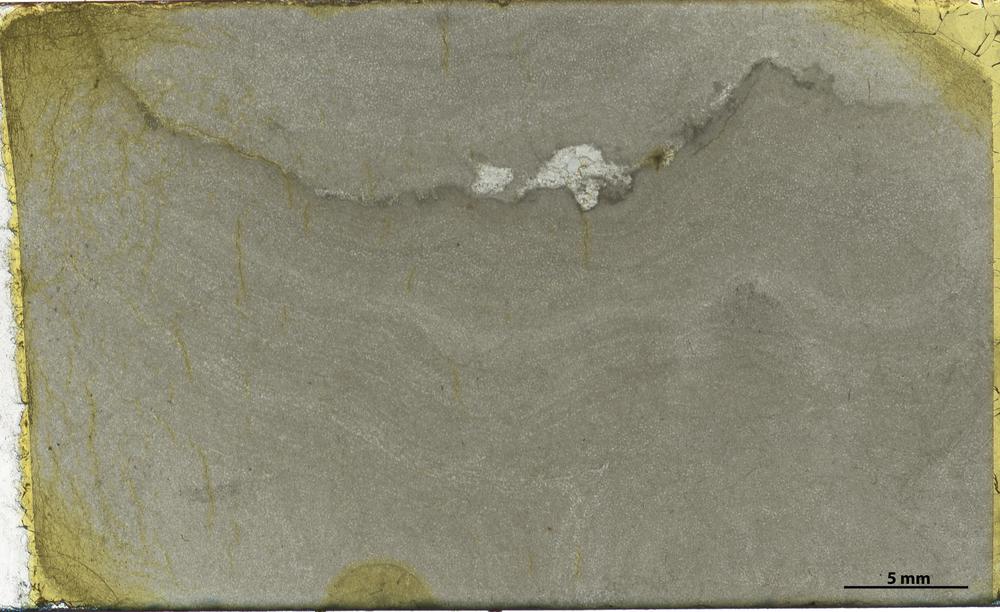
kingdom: Animalia
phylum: Porifera
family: Densastromatidae
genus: Densastroma
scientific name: Densastroma Actinostroma pexisum
